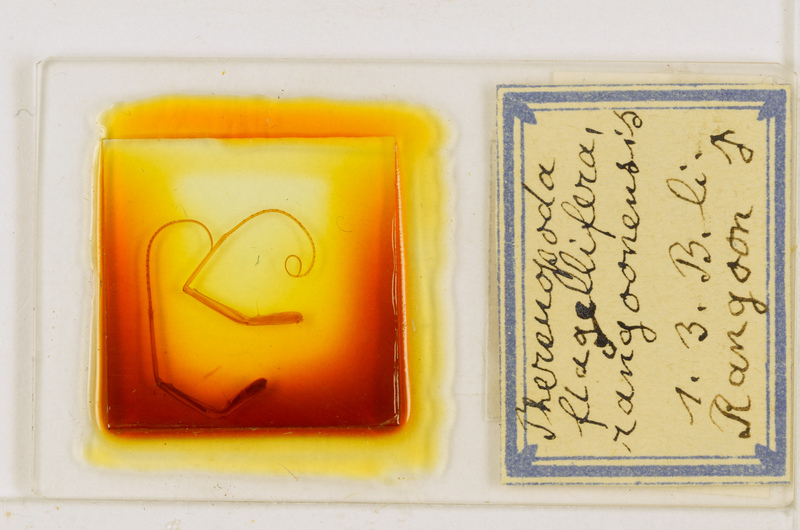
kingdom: Animalia
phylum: Arthropoda
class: Chilopoda
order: Scutigeromorpha
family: Scutigeridae
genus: Thereuopoda
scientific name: Thereuopoda longicornis
